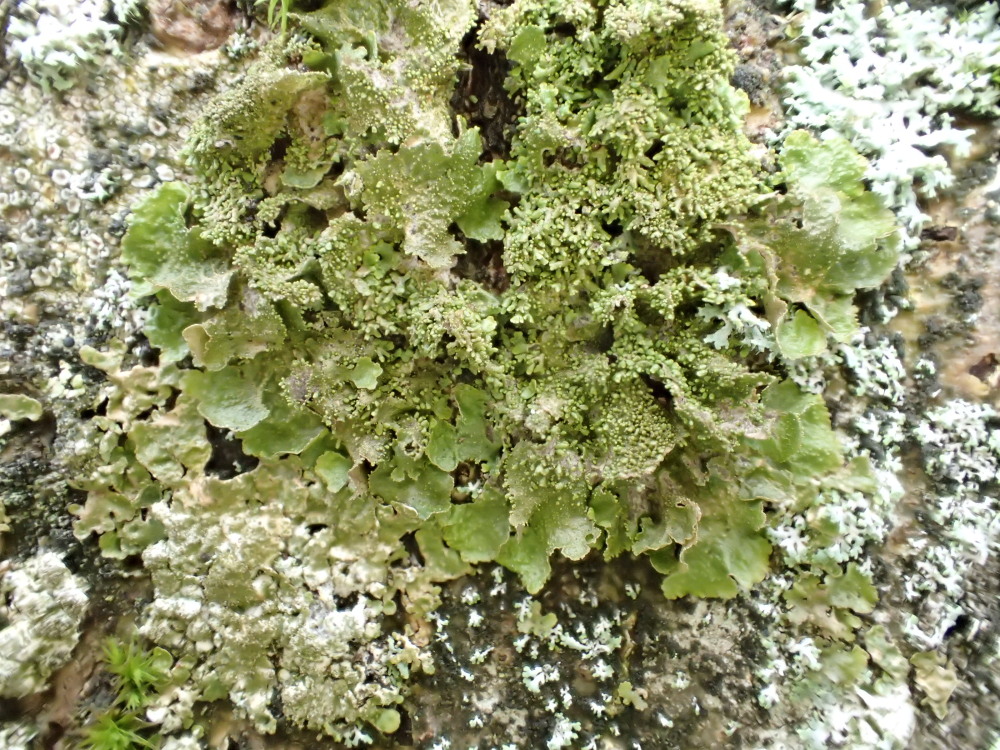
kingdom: Fungi
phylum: Ascomycota
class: Lecanoromycetes
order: Lecanorales
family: Parmeliaceae
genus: Melanohalea
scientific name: Melanohalea exasperatula
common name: kølle-skållav
